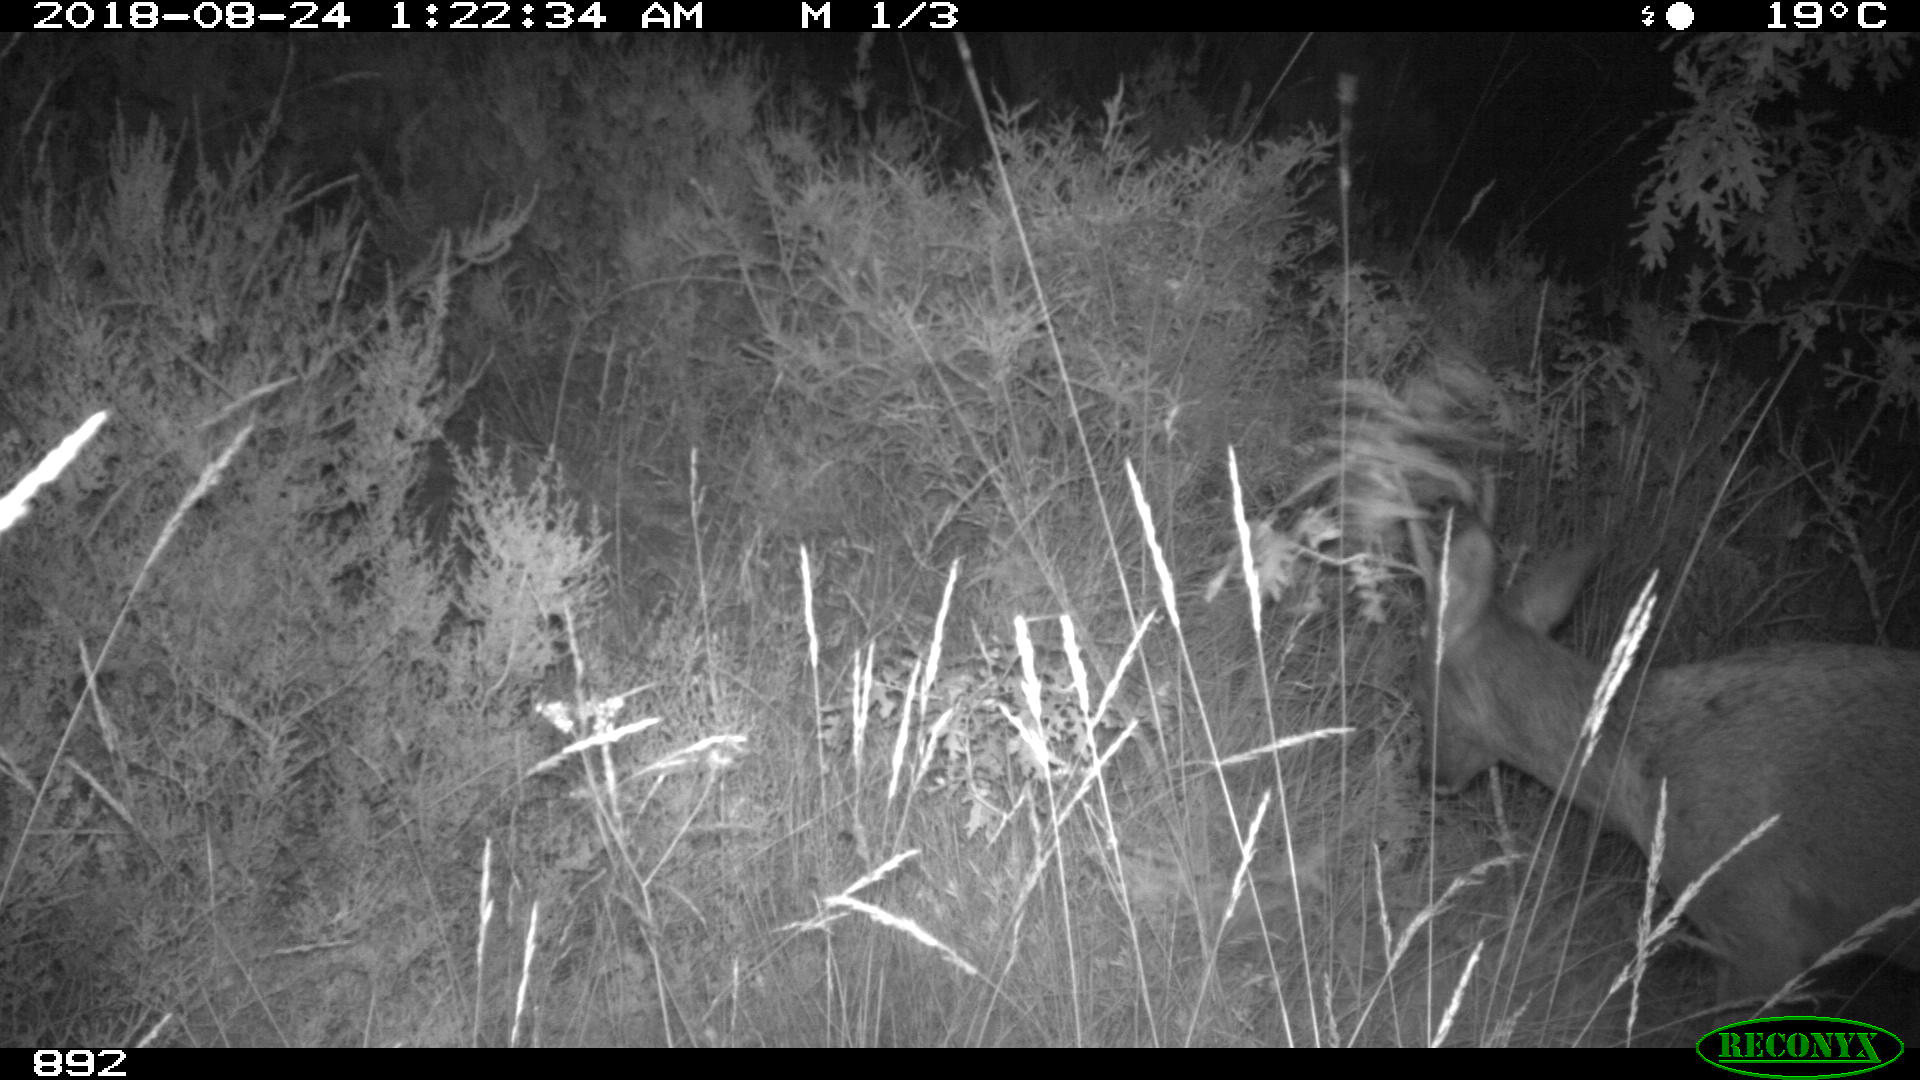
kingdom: Animalia
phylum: Chordata
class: Mammalia
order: Artiodactyla
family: Cervidae
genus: Capreolus
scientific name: Capreolus capreolus
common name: Western roe deer
